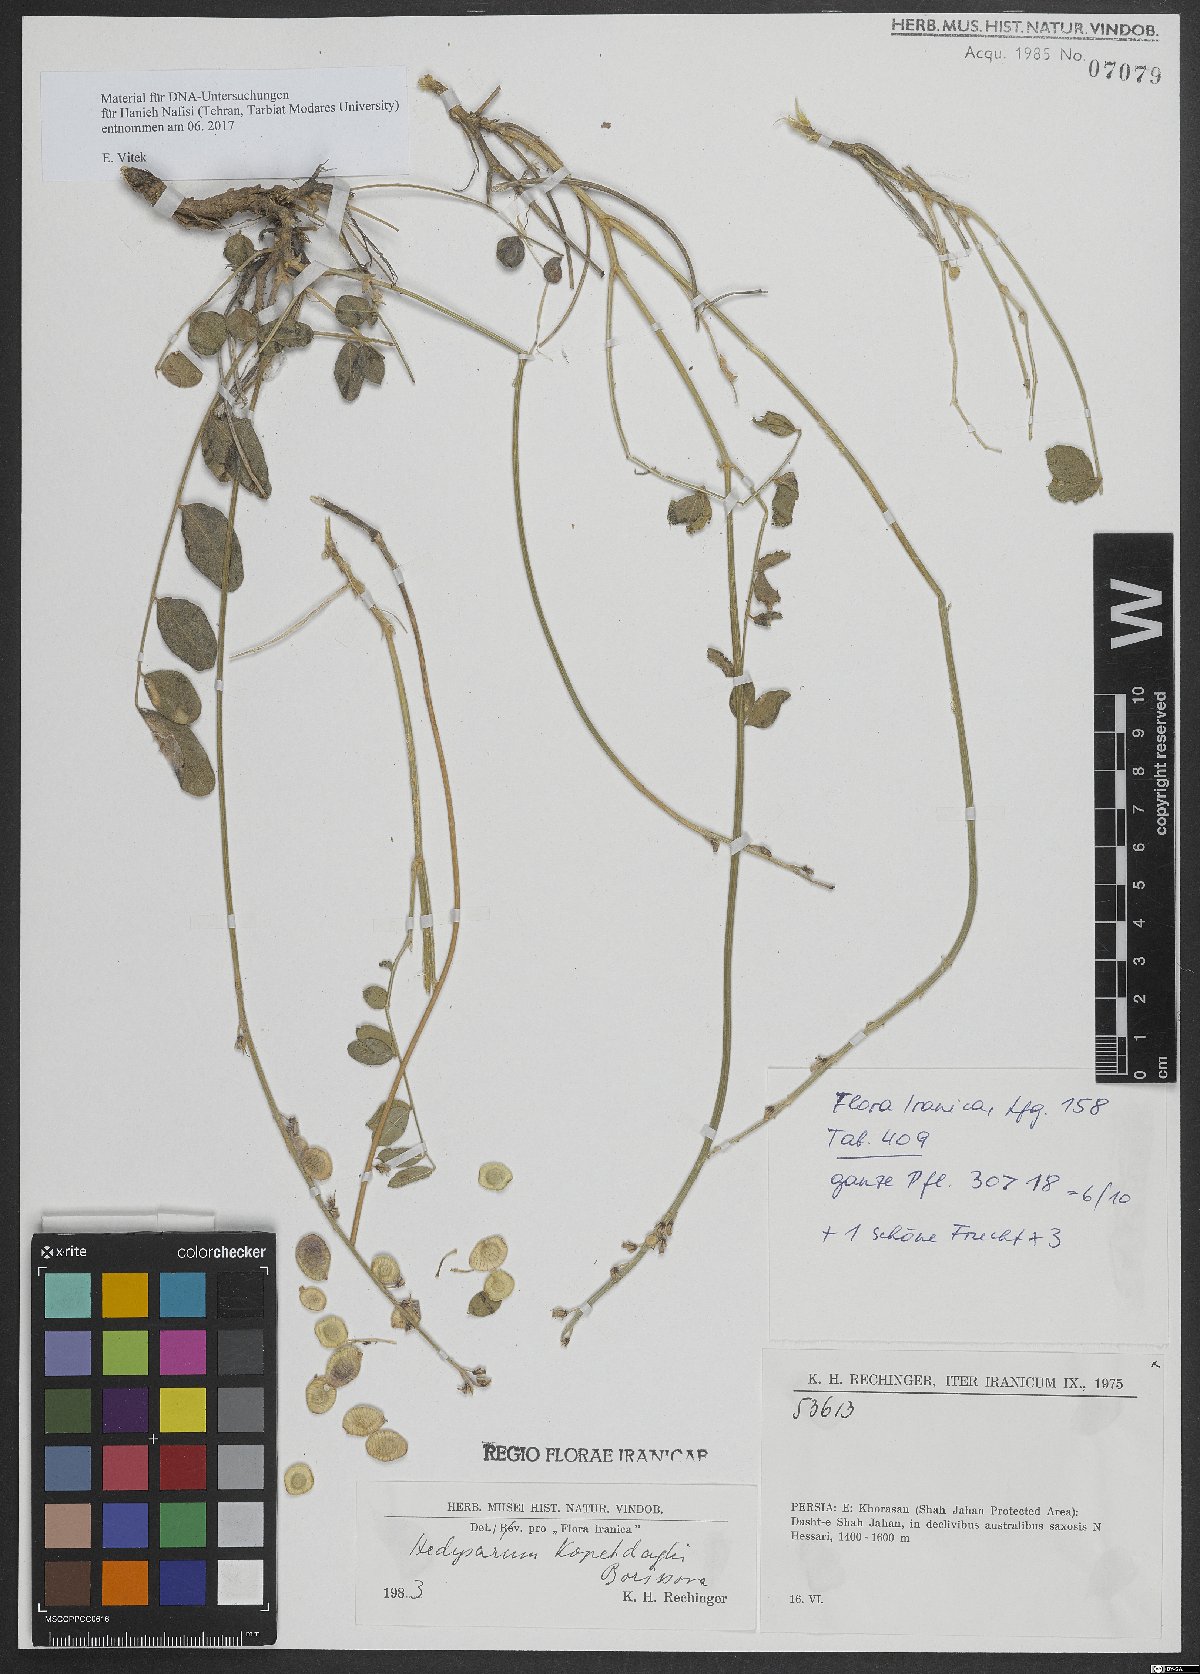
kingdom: Plantae
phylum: Tracheophyta
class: Magnoliopsida
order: Fabales
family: Fabaceae
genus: Hedysarum
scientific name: Hedysarum kopetdaghi
